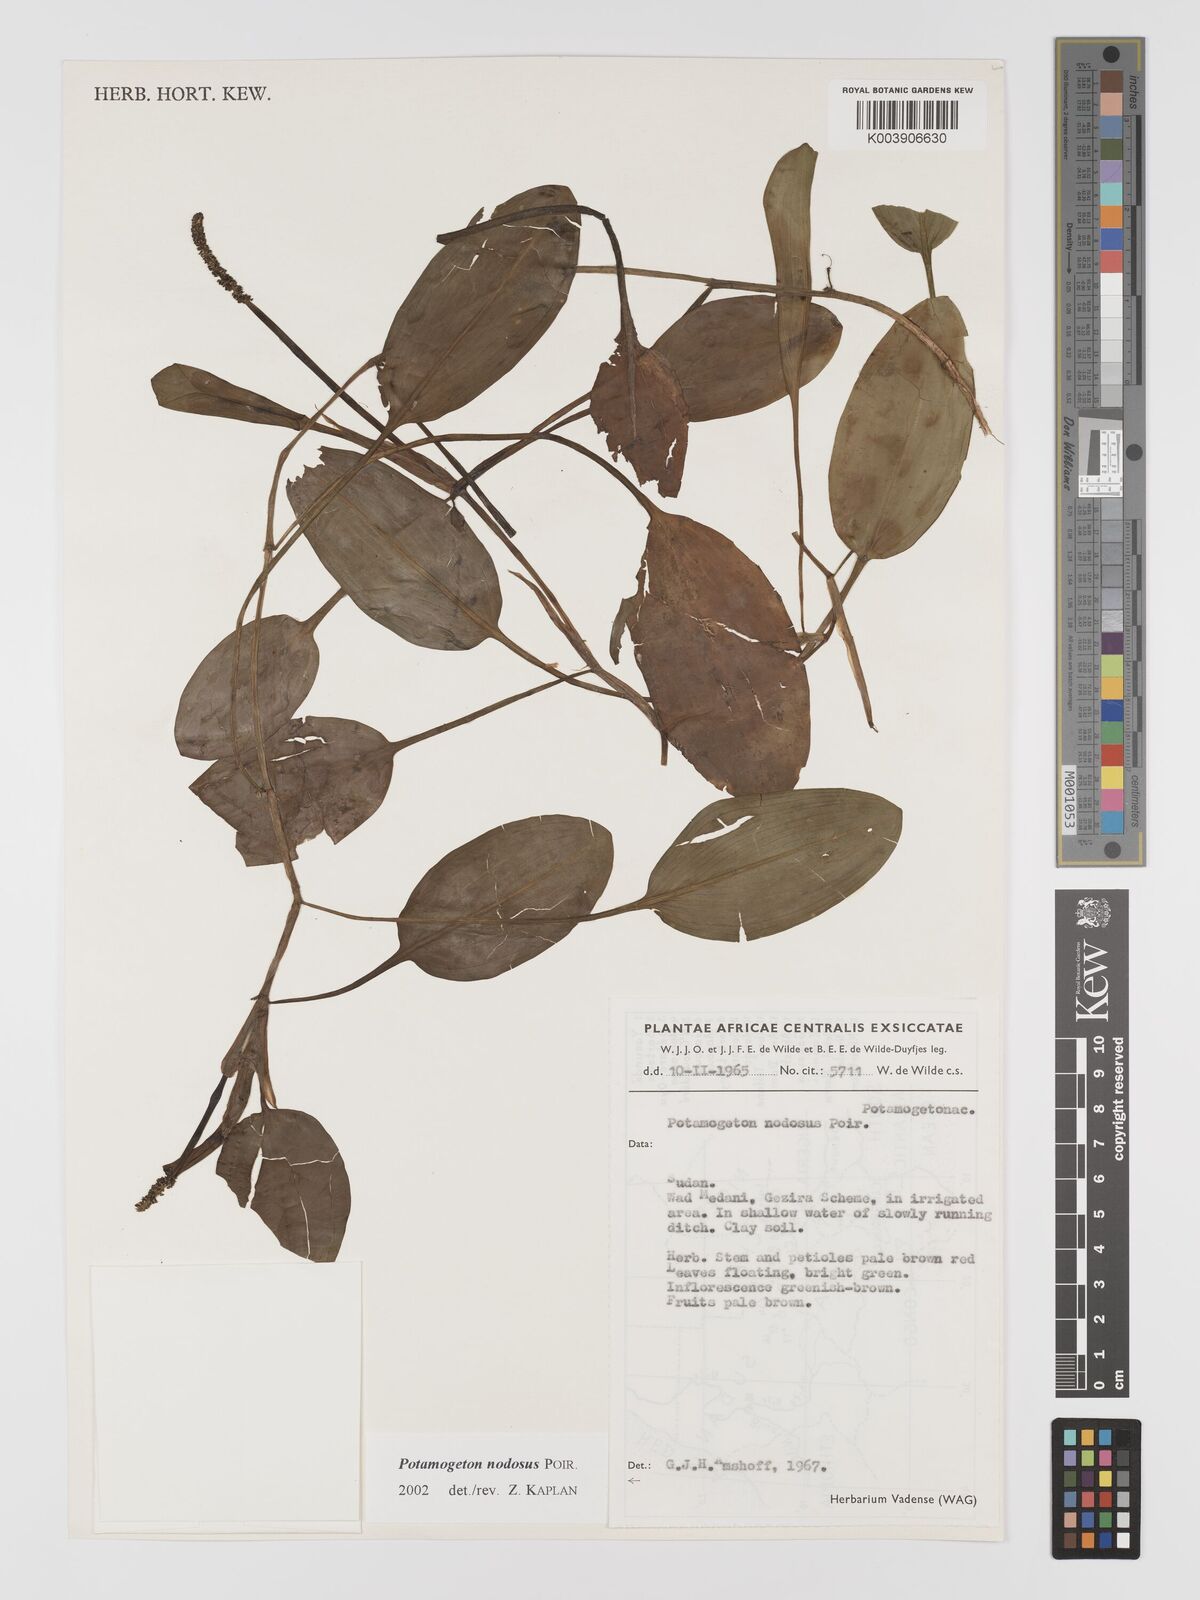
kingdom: Plantae
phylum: Tracheophyta
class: Liliopsida
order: Alismatales
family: Potamogetonaceae
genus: Potamogeton
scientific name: Potamogeton nodosus
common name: Loddon pondweed
